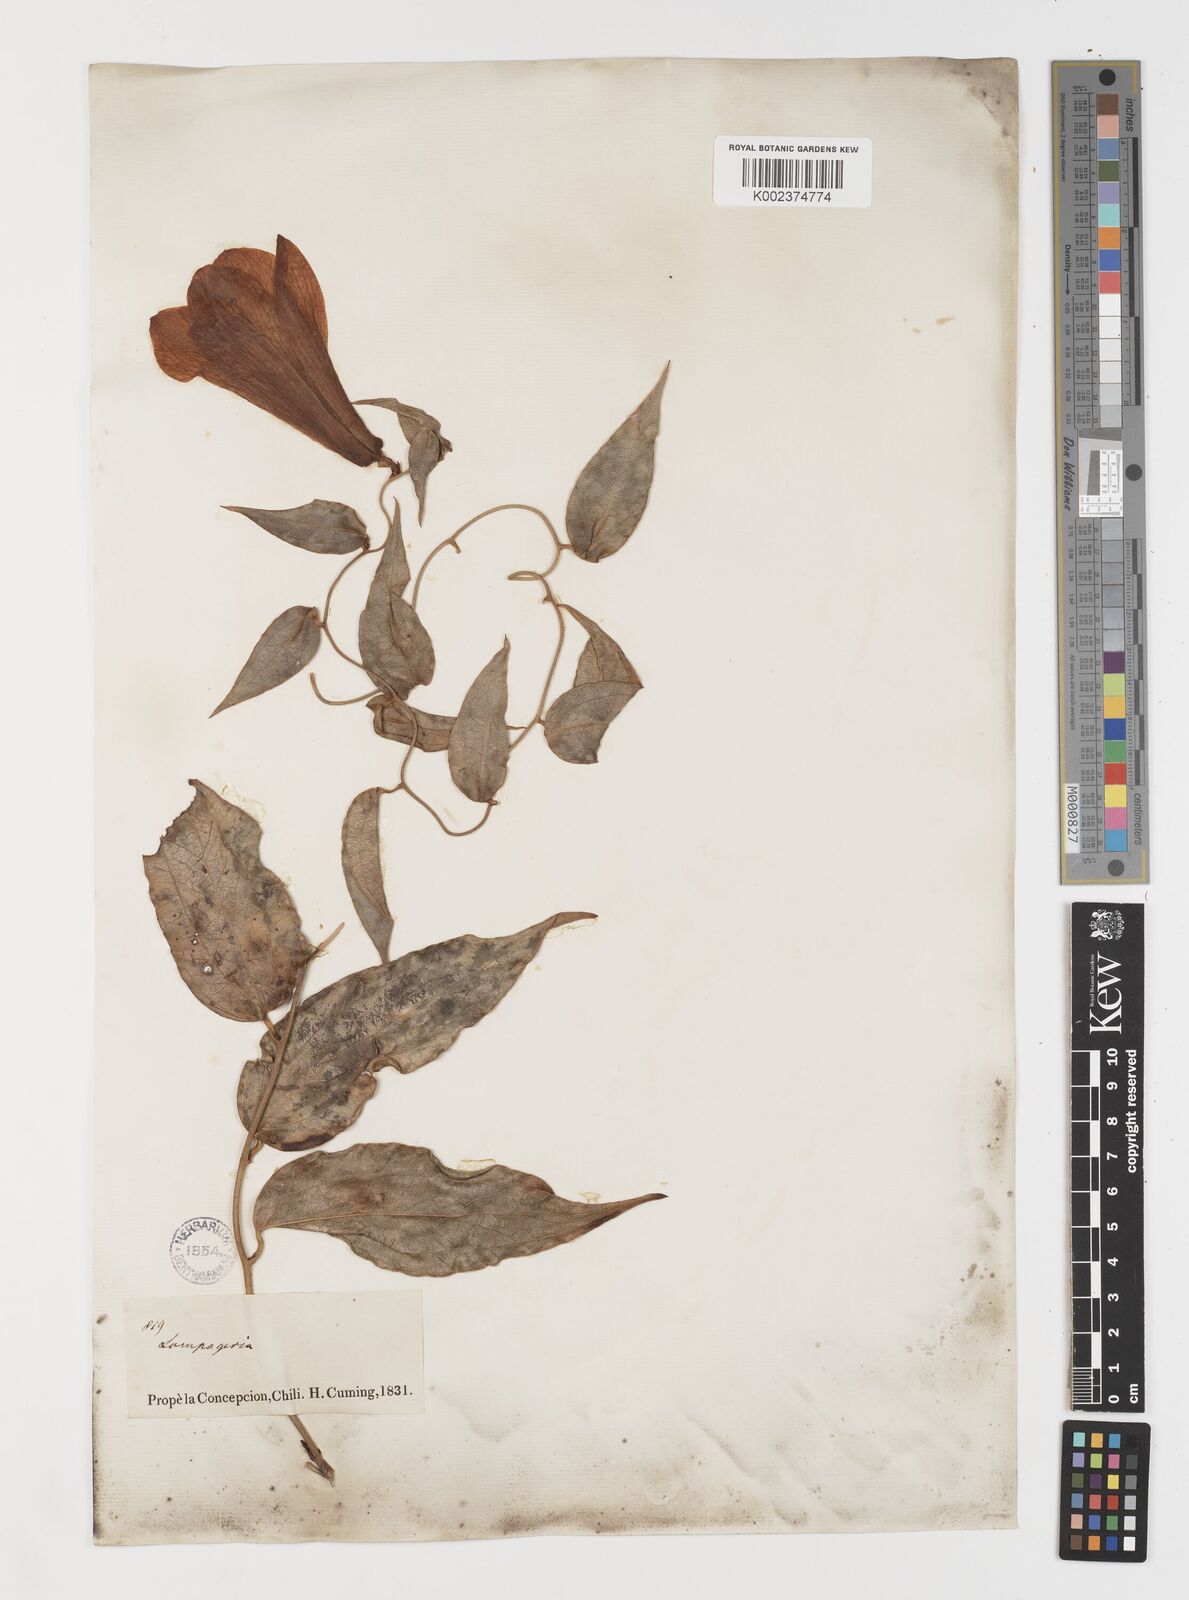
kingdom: Plantae
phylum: Tracheophyta
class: Liliopsida
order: Liliales
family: Philesiaceae
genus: Lapageria
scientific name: Lapageria rosea
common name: Chilean-bellflower
